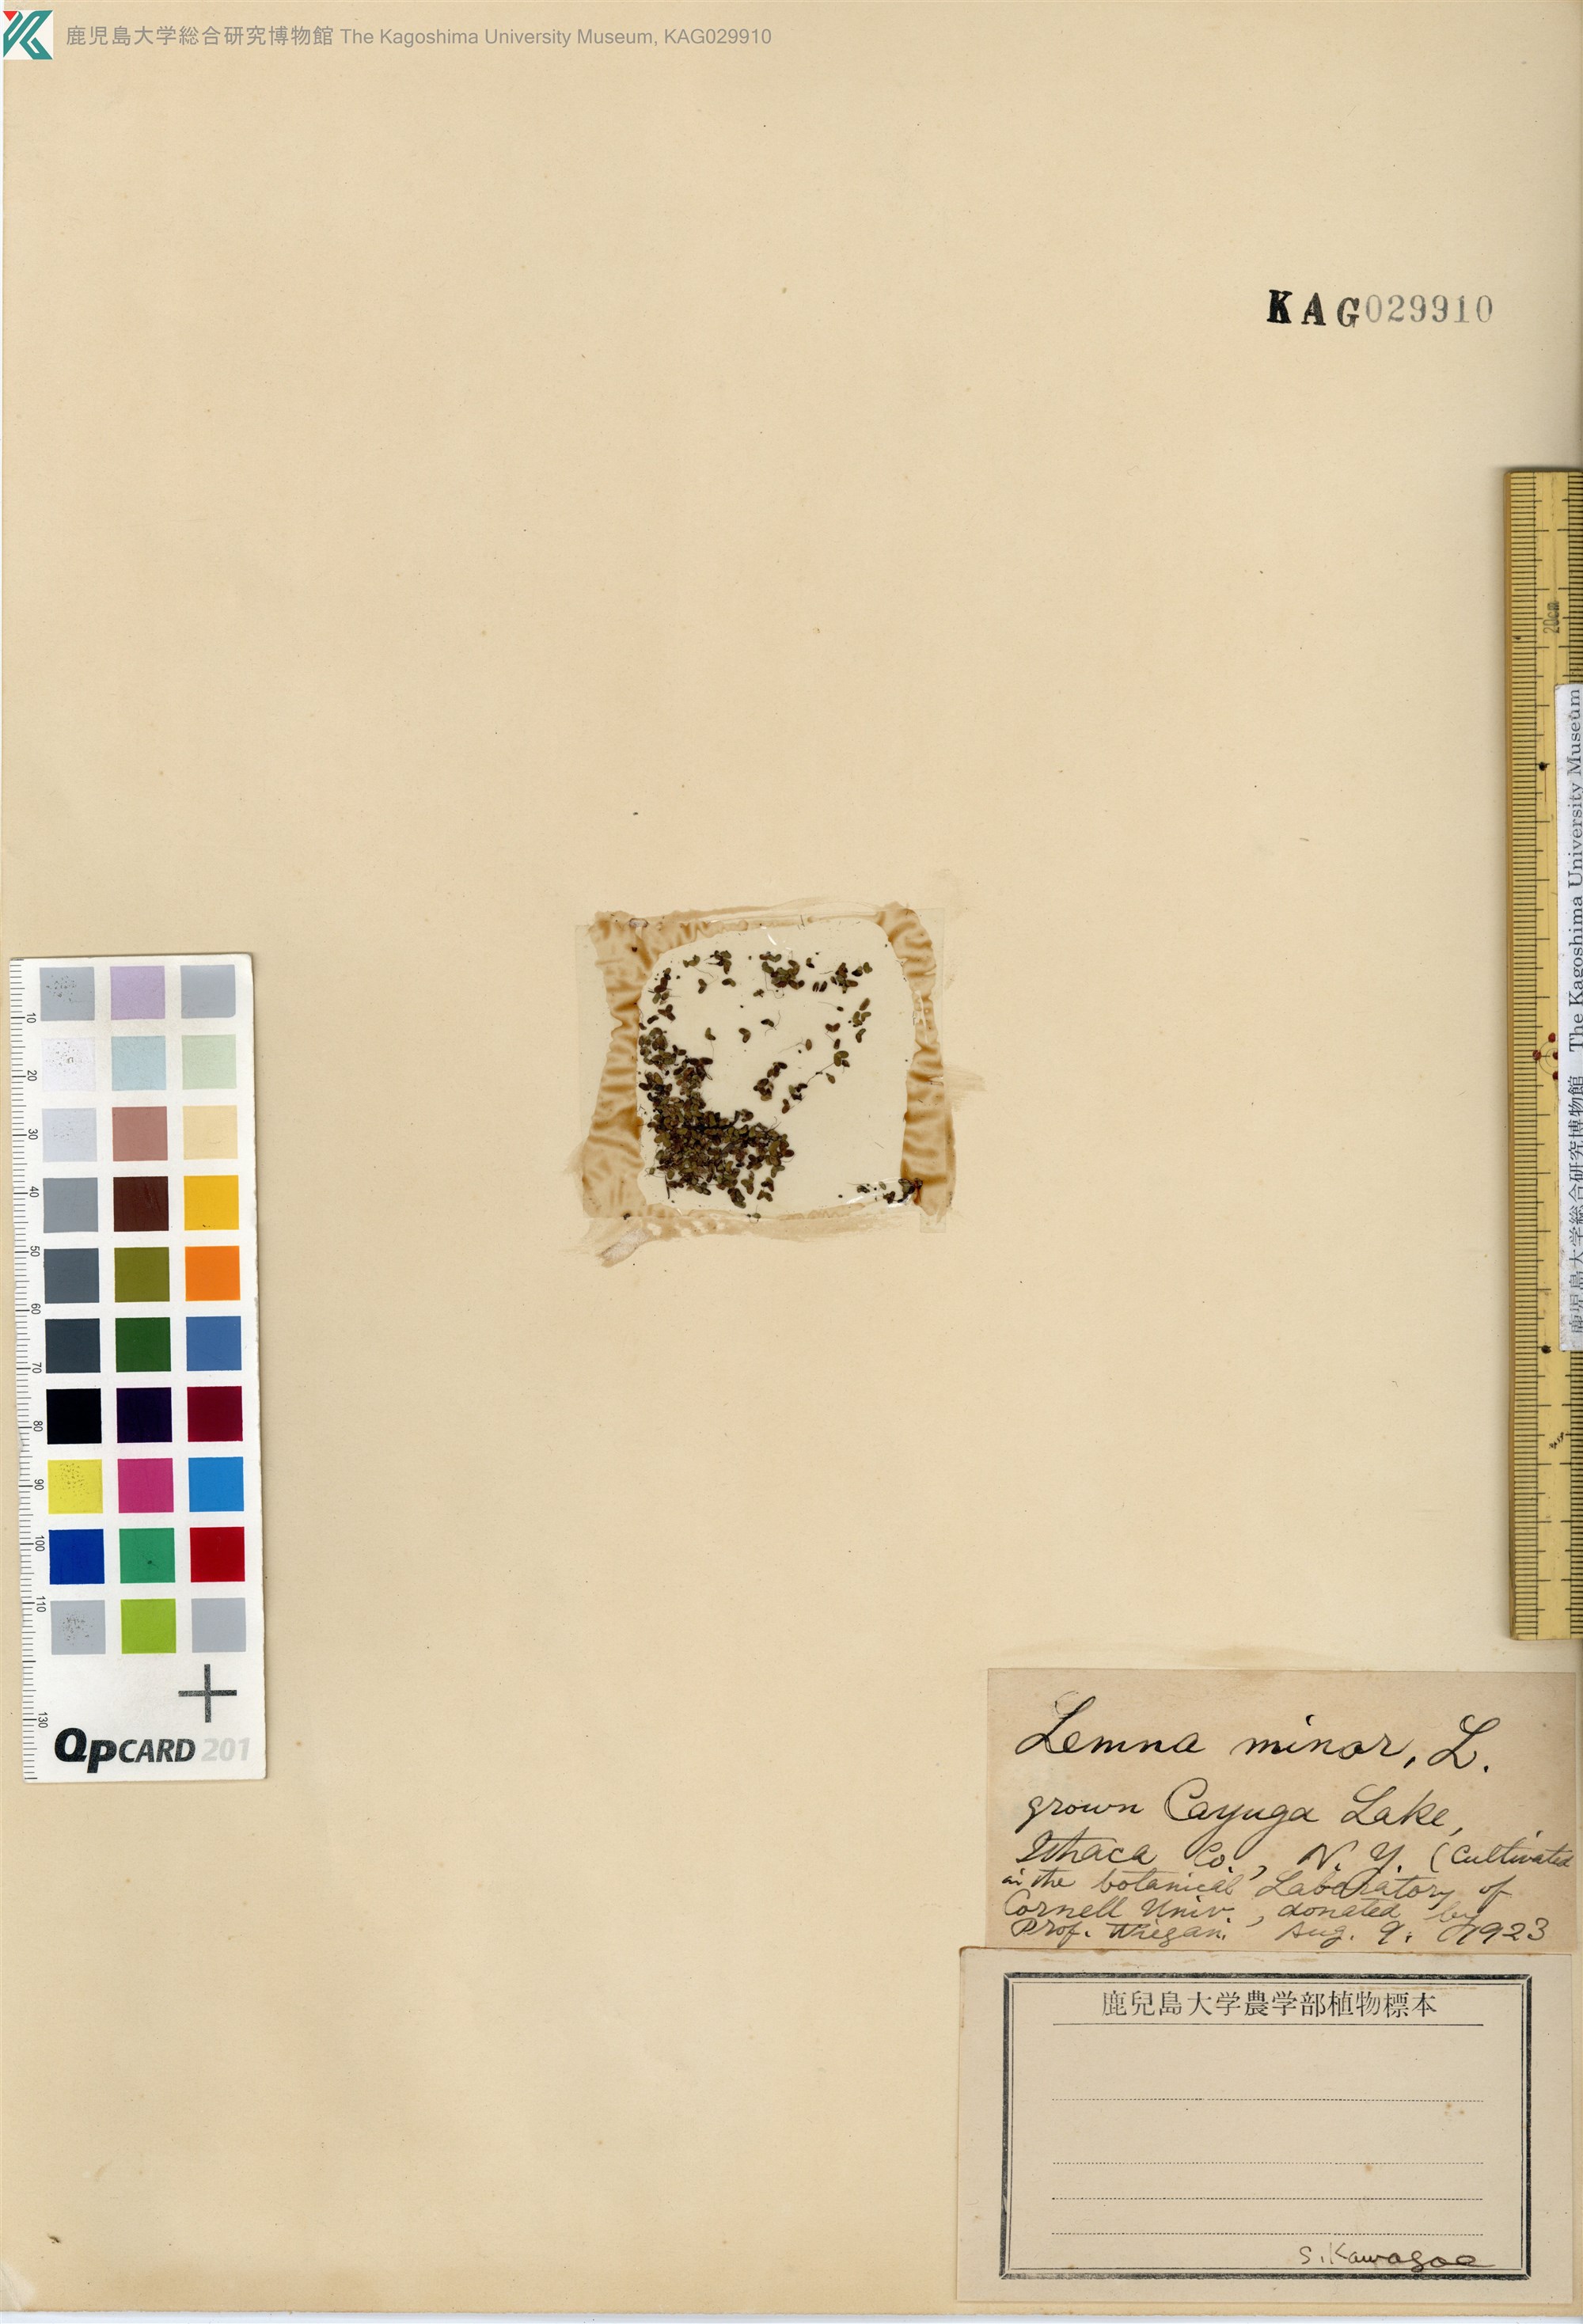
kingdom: Plantae
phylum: Tracheophyta
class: Liliopsida
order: Alismatales
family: Araceae
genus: Lemna
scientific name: Lemna minor
